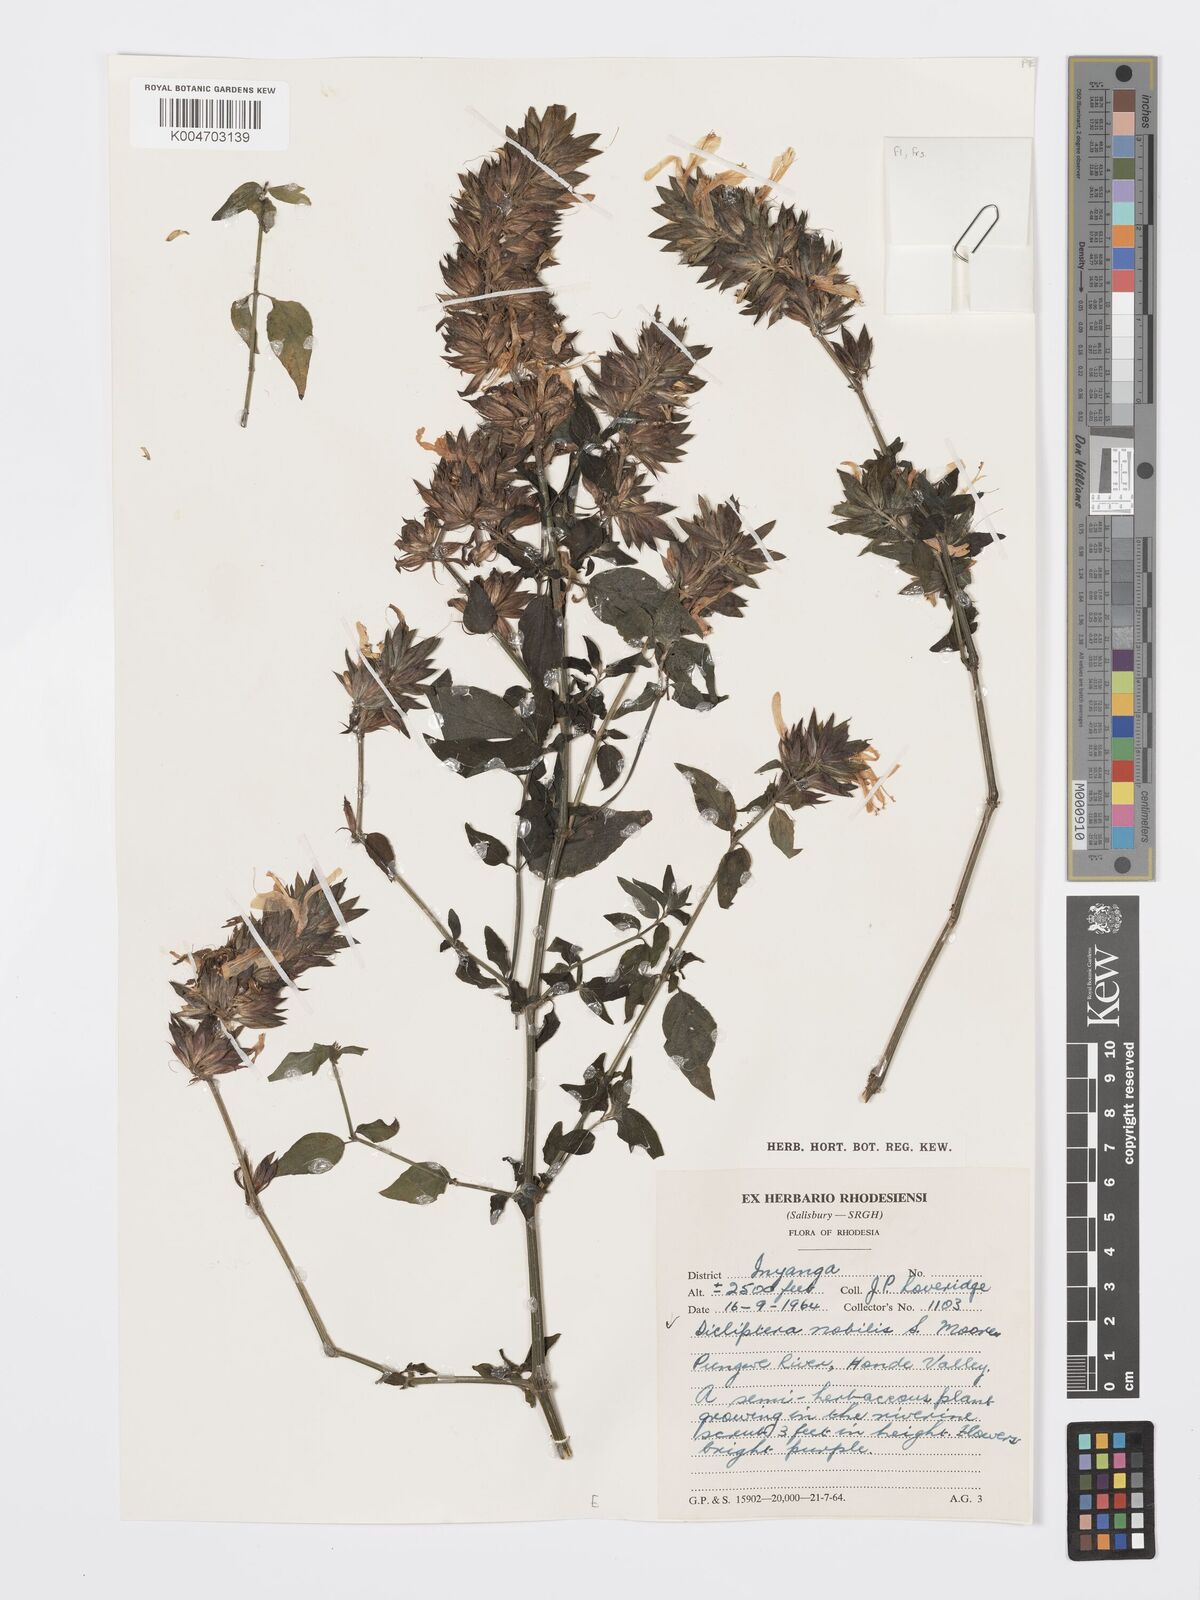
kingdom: Plantae
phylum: Tracheophyta
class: Magnoliopsida
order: Lamiales
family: Acanthaceae
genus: Dicliptera
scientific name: Dicliptera clinopodia
